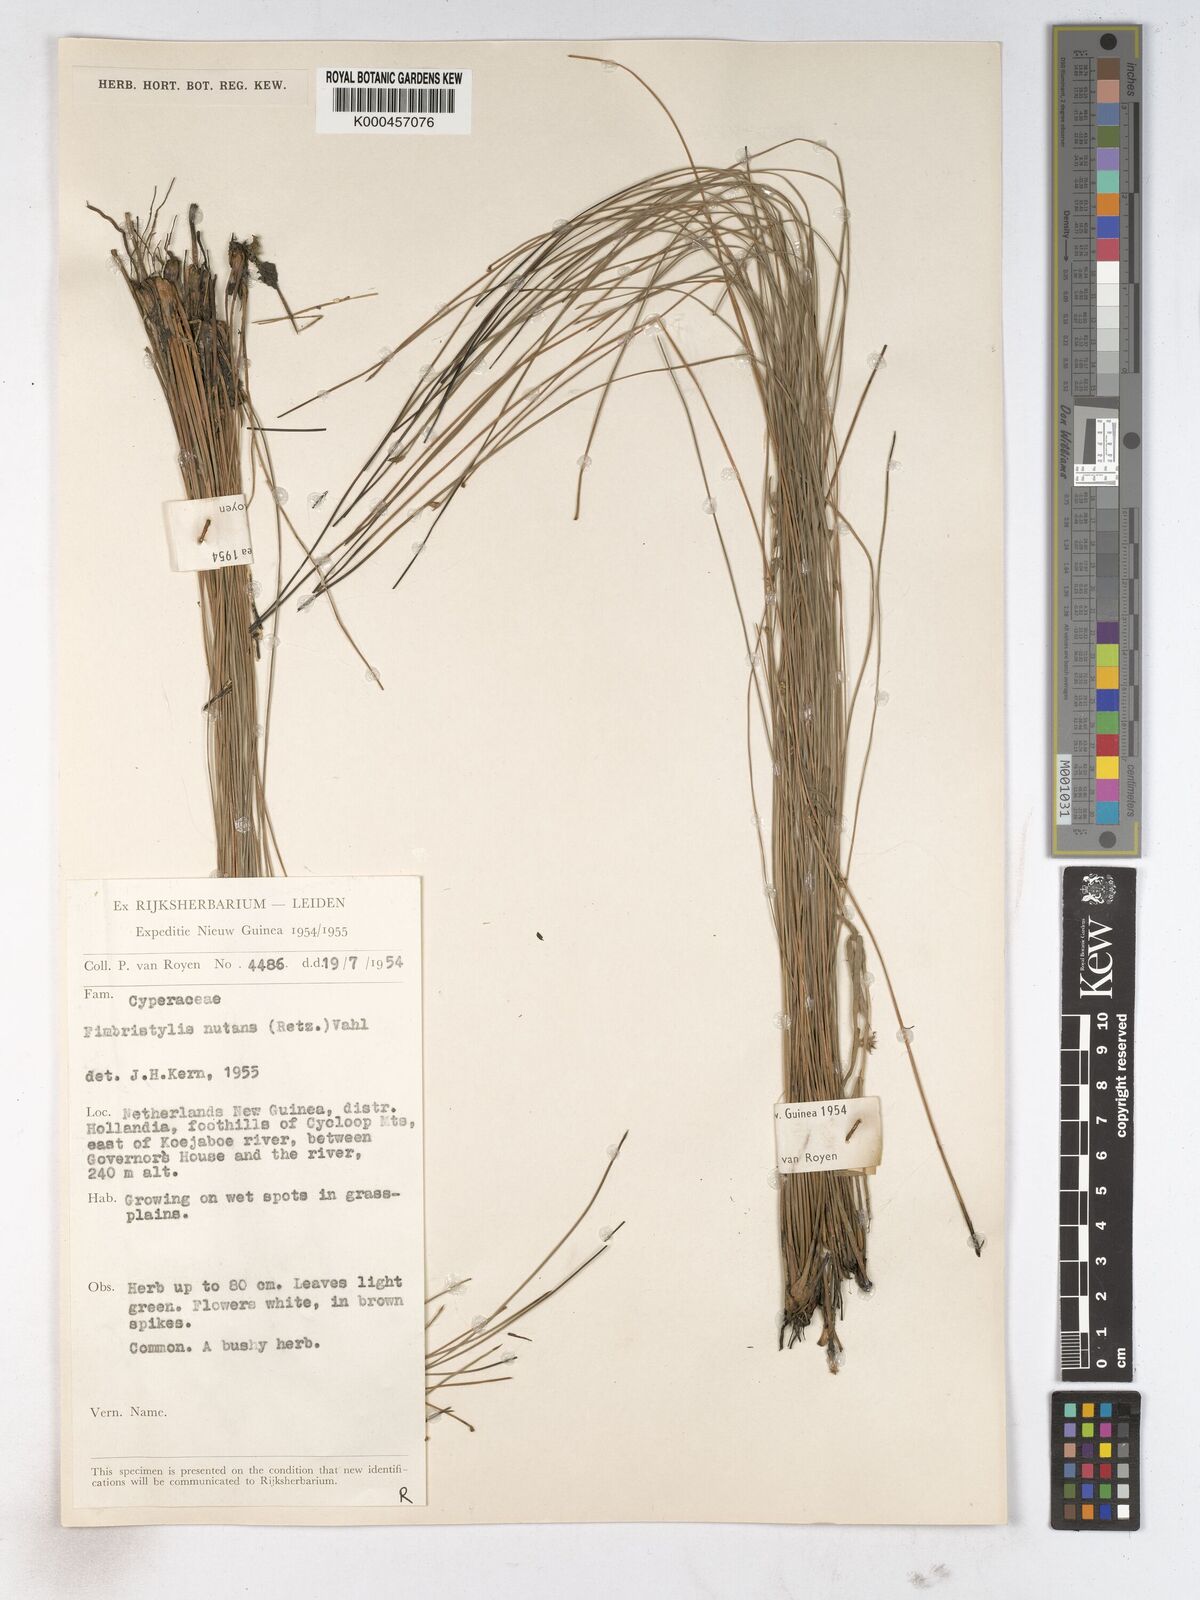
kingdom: Plantae
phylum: Tracheophyta
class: Liliopsida
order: Poales
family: Cyperaceae
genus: Fimbristylis
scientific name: Fimbristylis nutans
